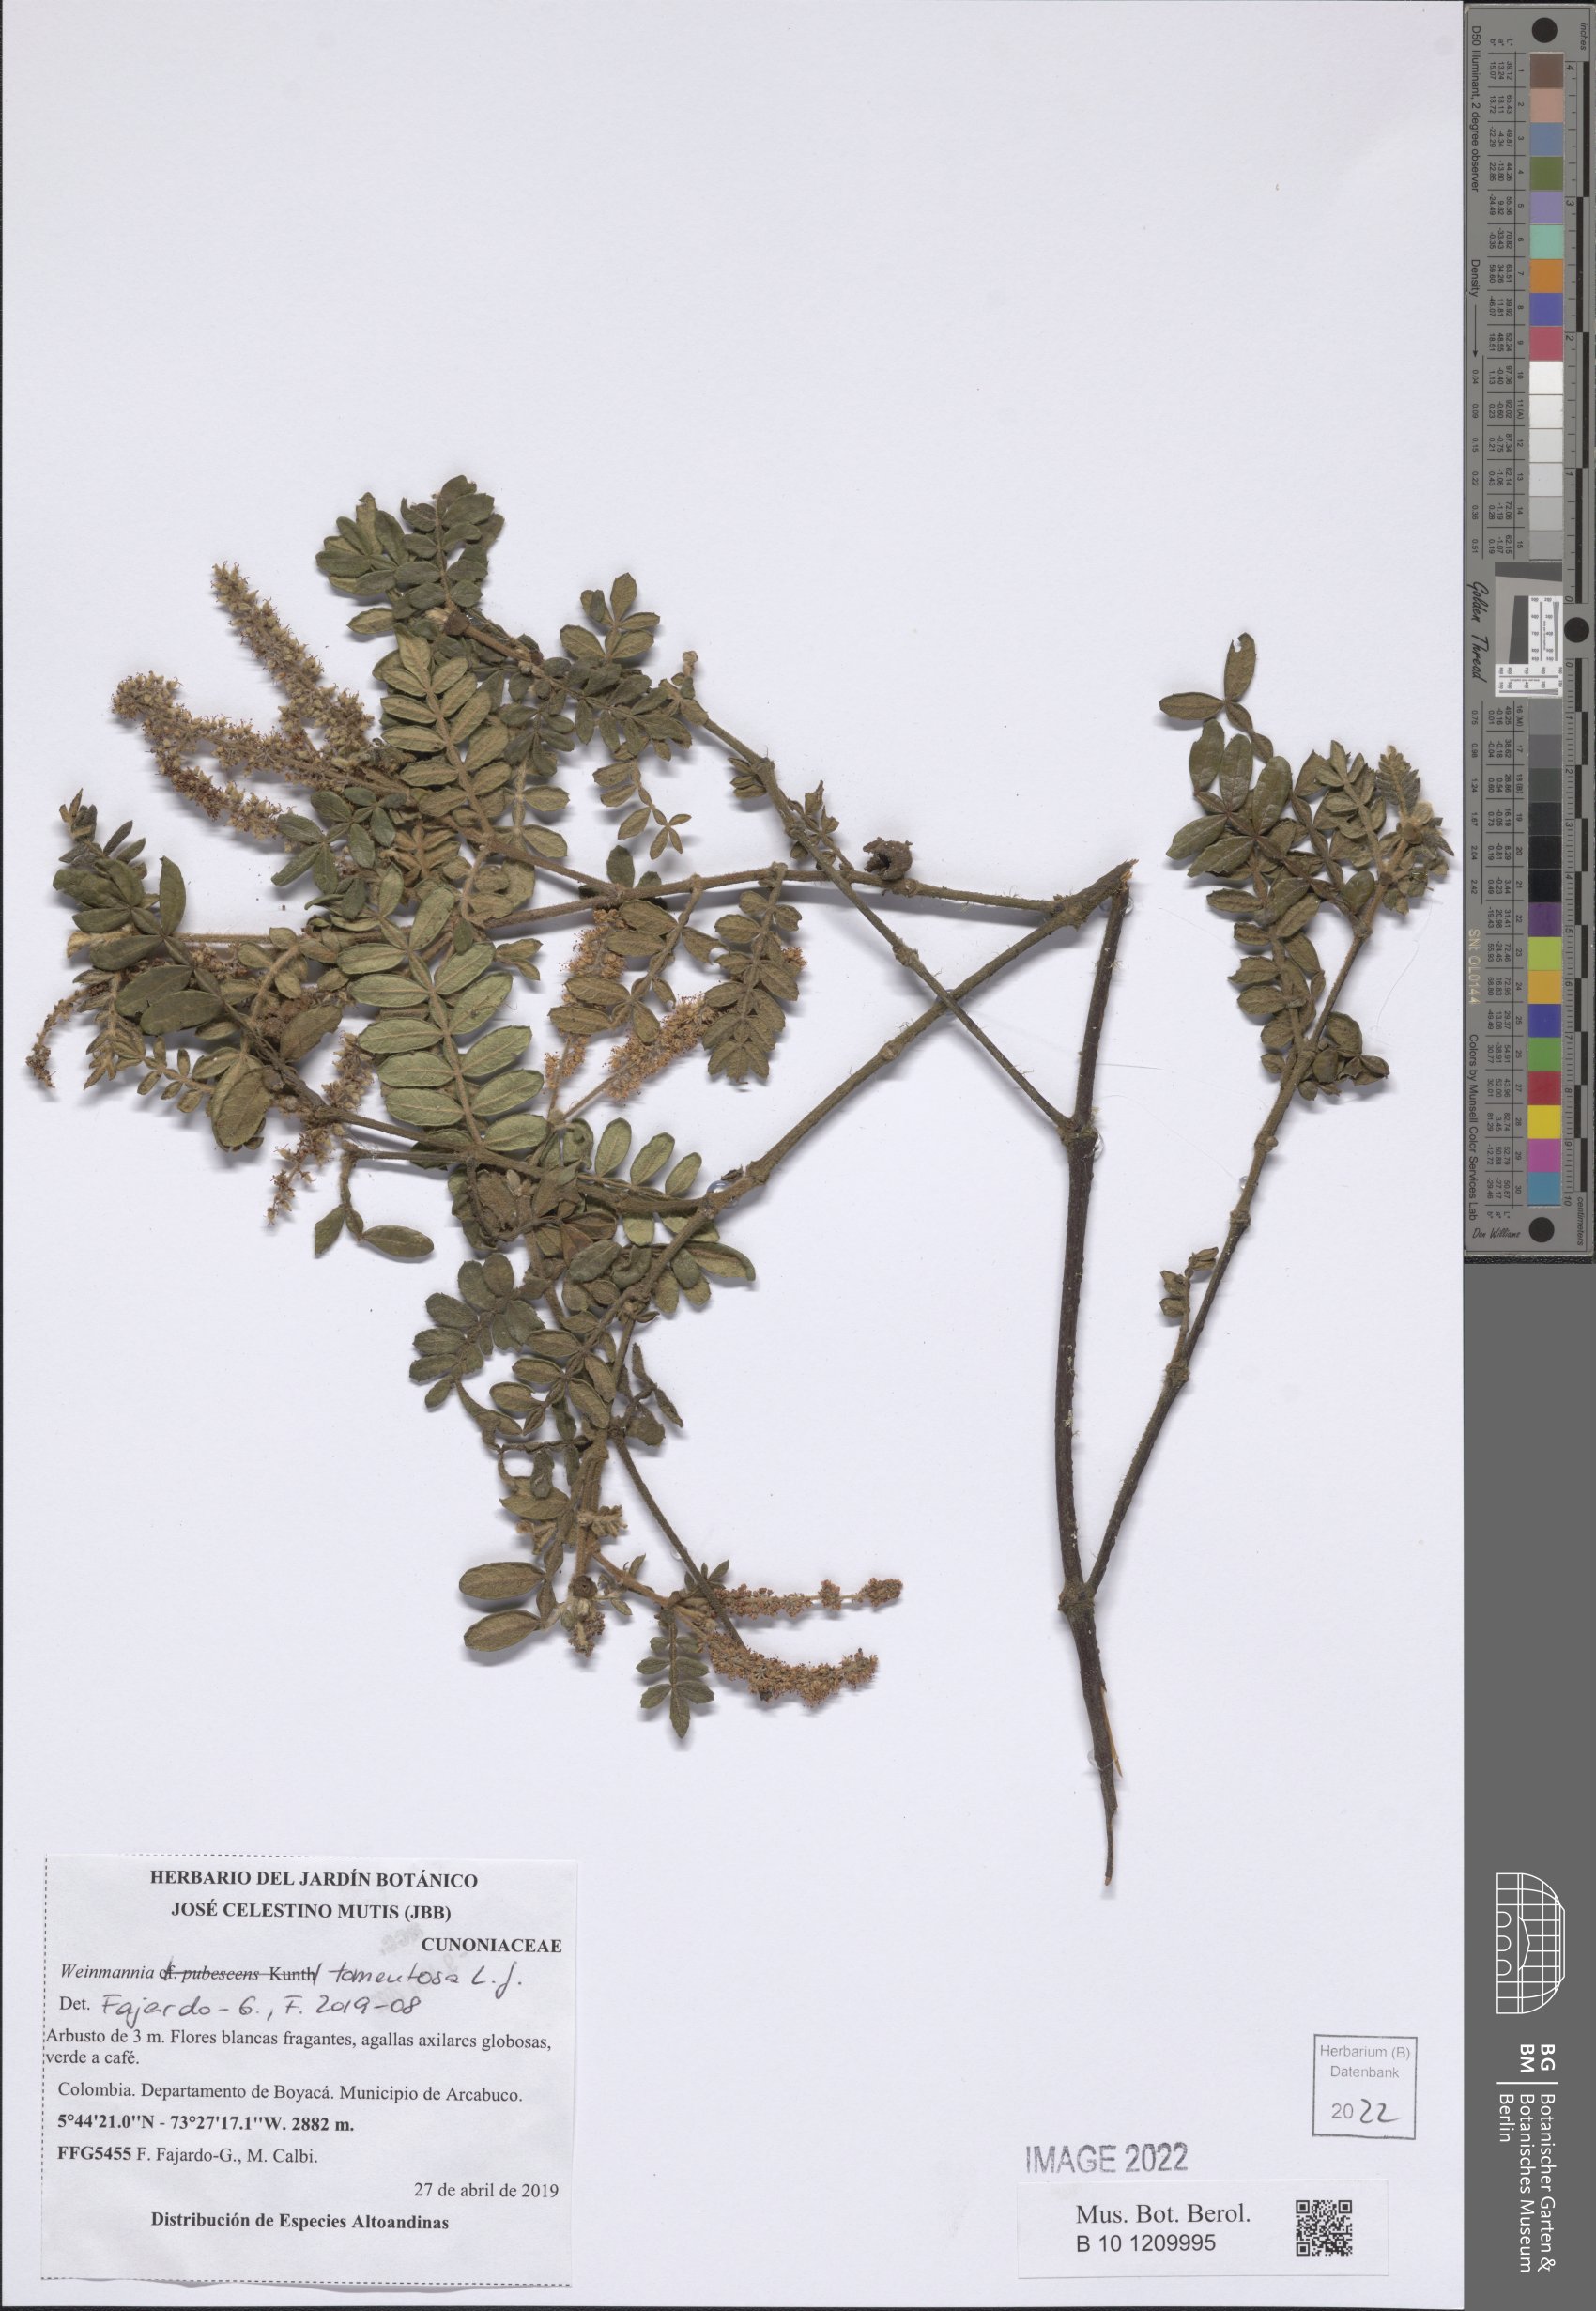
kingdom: Plantae
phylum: Tracheophyta
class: Magnoliopsida
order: Oxalidales
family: Cunoniaceae
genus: Weinmannia
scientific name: Weinmannia tomentosa
